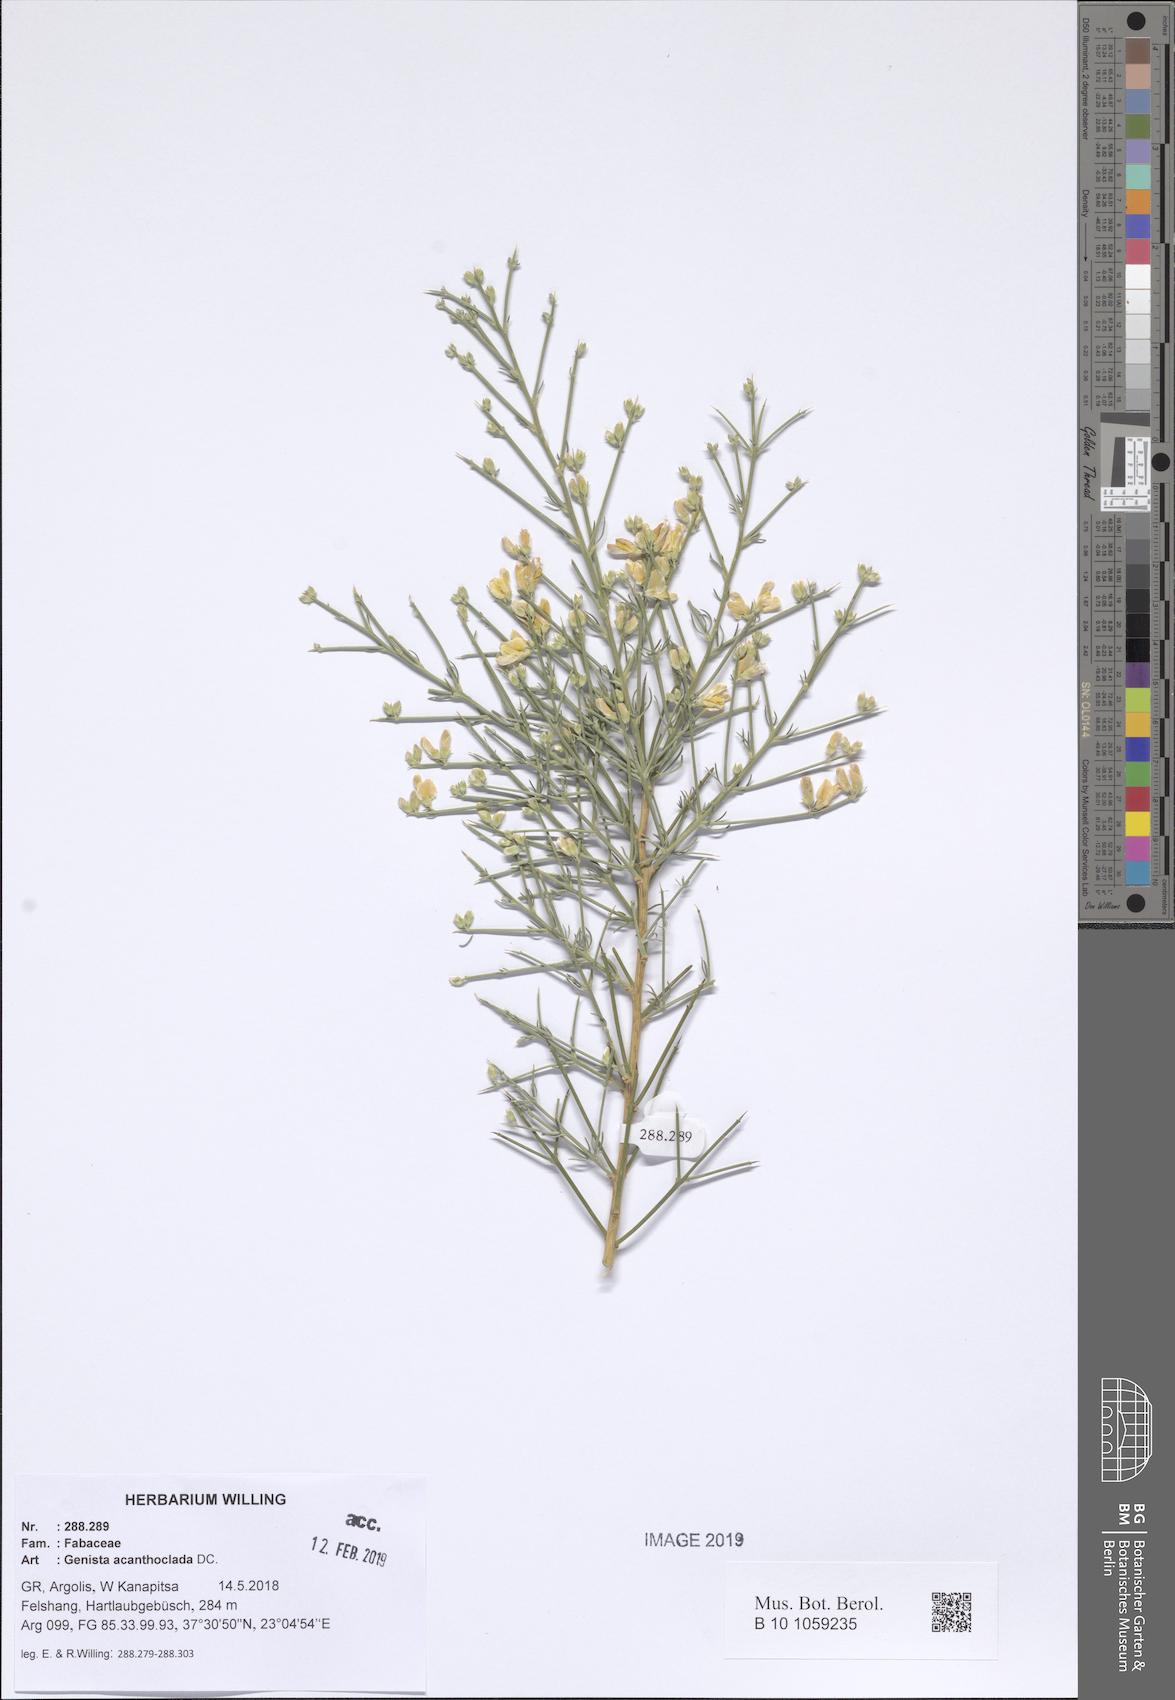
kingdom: Plantae
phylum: Tracheophyta
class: Magnoliopsida
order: Fabales
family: Fabaceae
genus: Genista
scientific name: Genista acanthoclada
